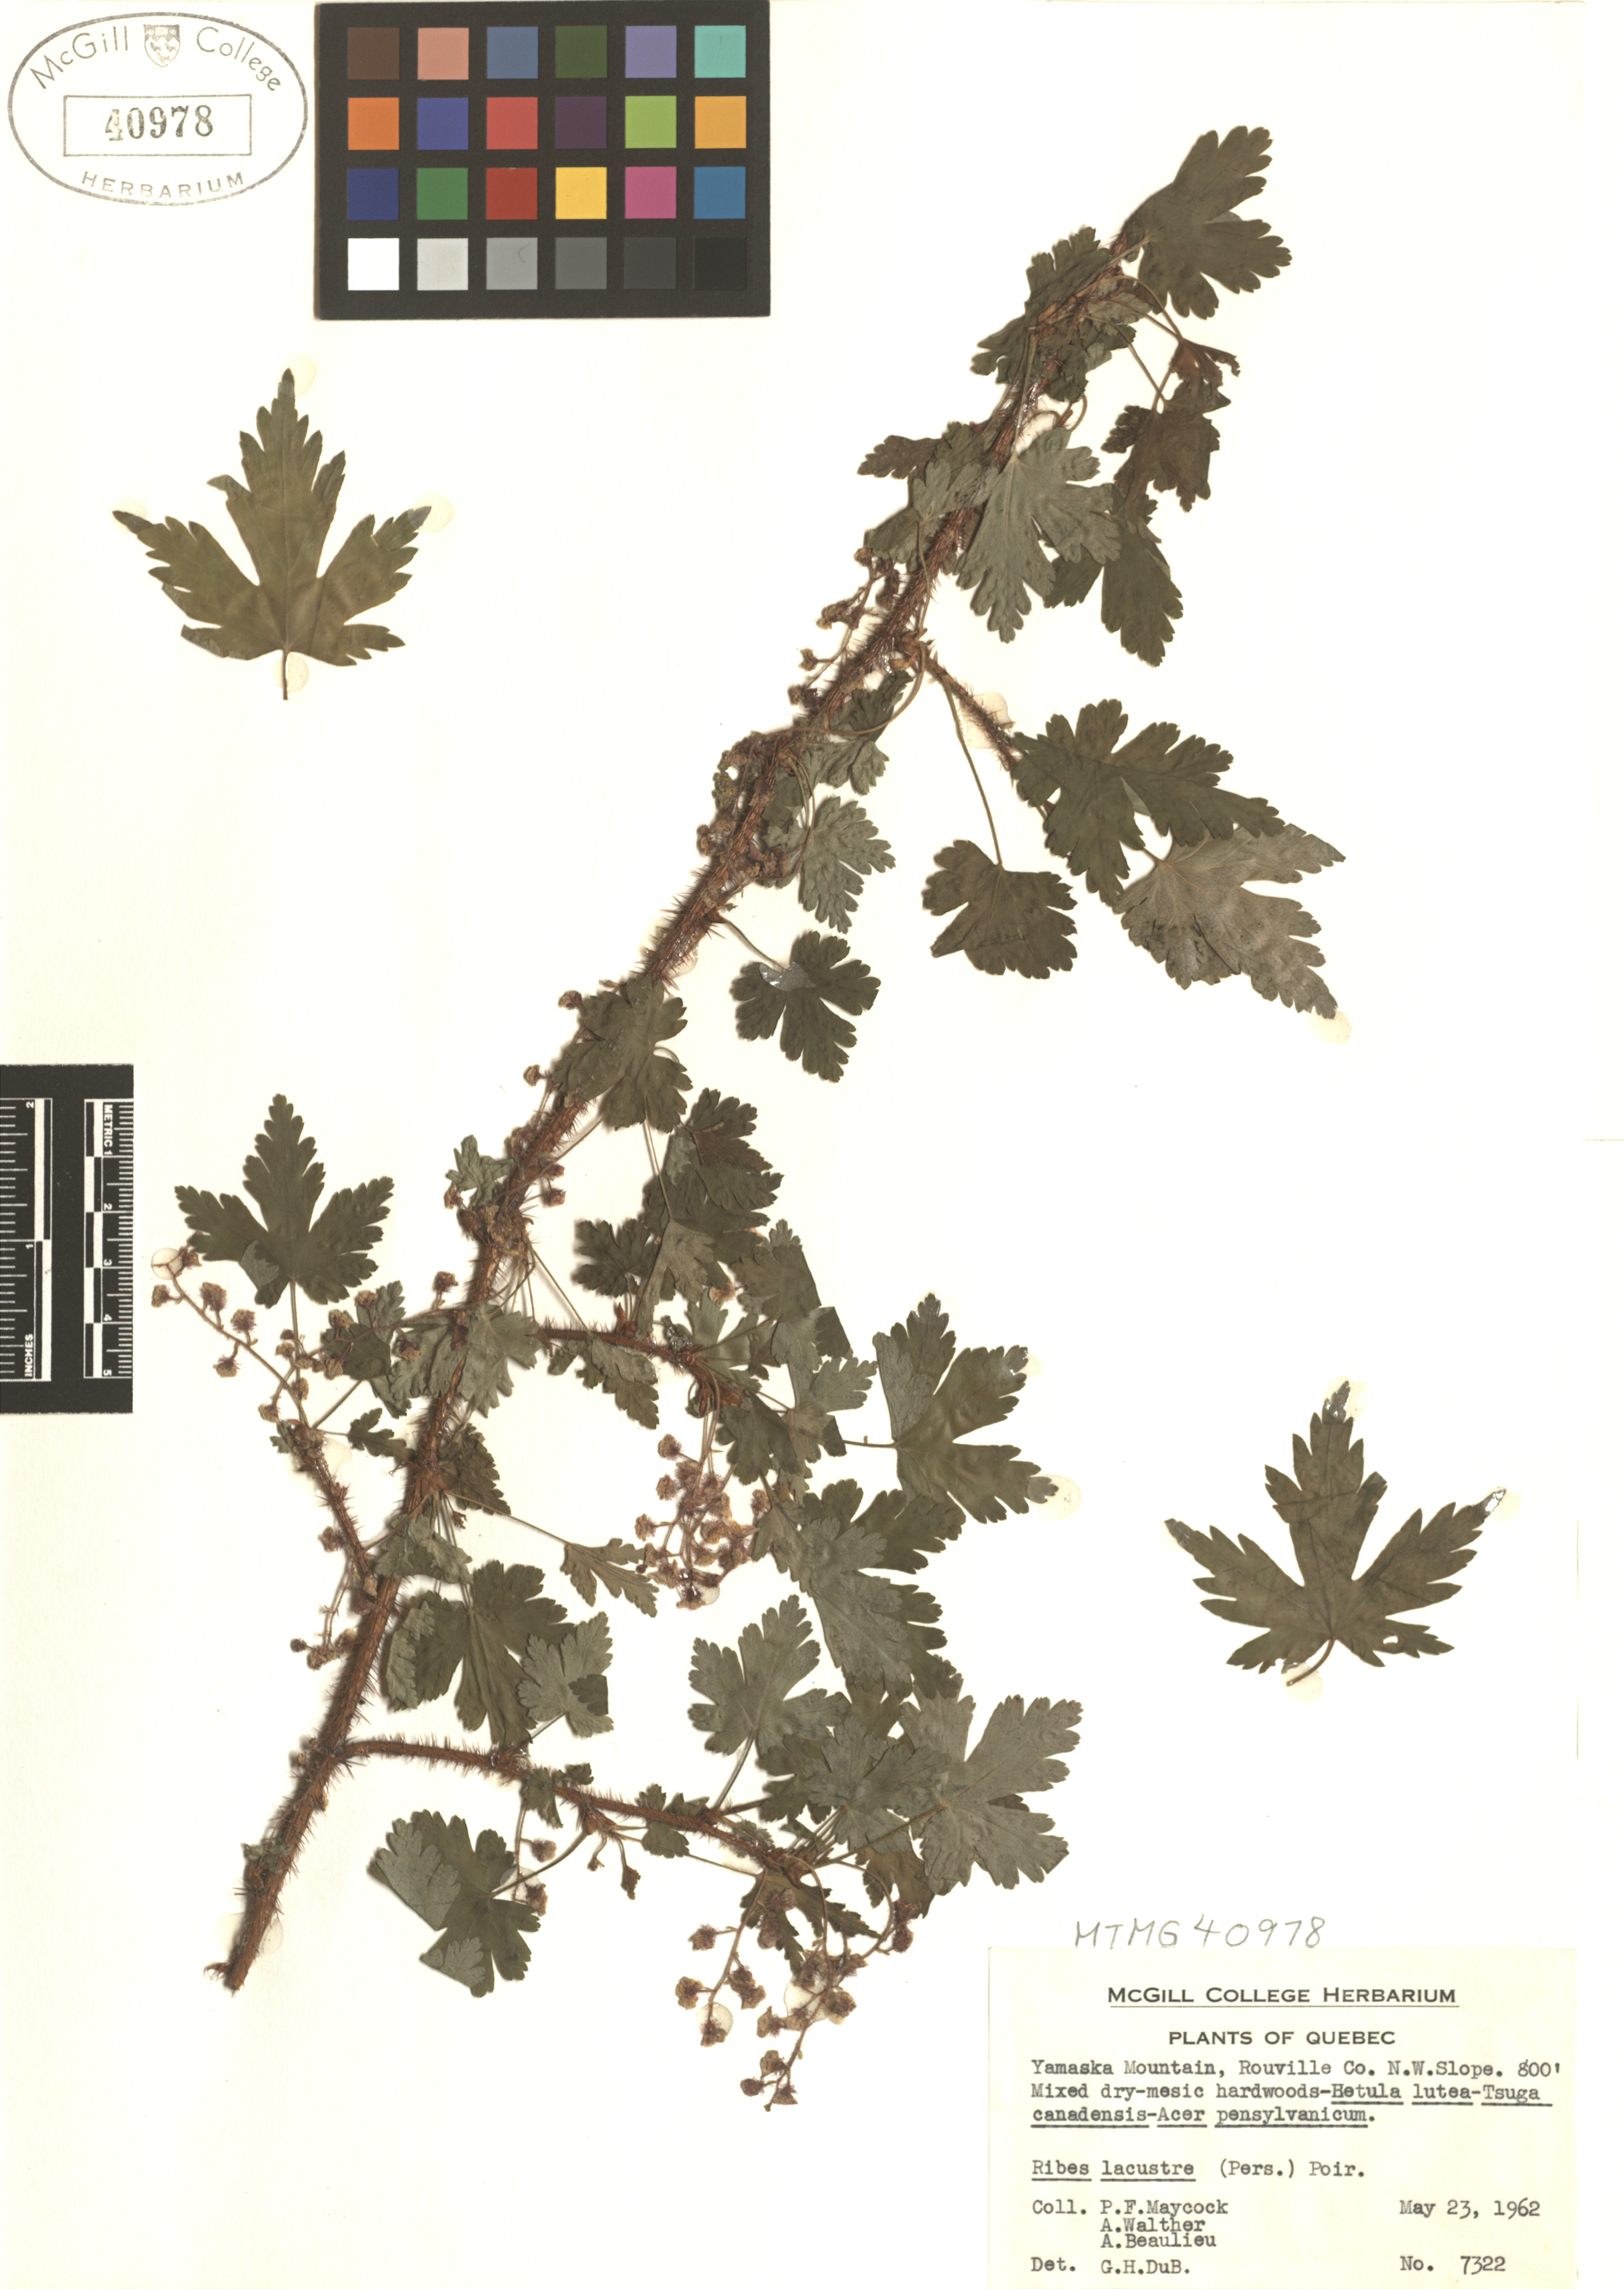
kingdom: Plantae
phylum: Tracheophyta
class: Magnoliopsida
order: Saxifragales
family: Grossulariaceae
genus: Ribes
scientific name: Ribes lacustre
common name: Black gooseberry
